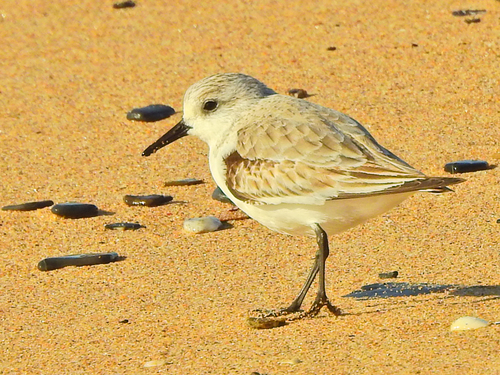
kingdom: Animalia
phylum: Chordata
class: Aves
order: Charadriiformes
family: Scolopacidae
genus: Calidris
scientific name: Calidris alba
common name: Sanderling
